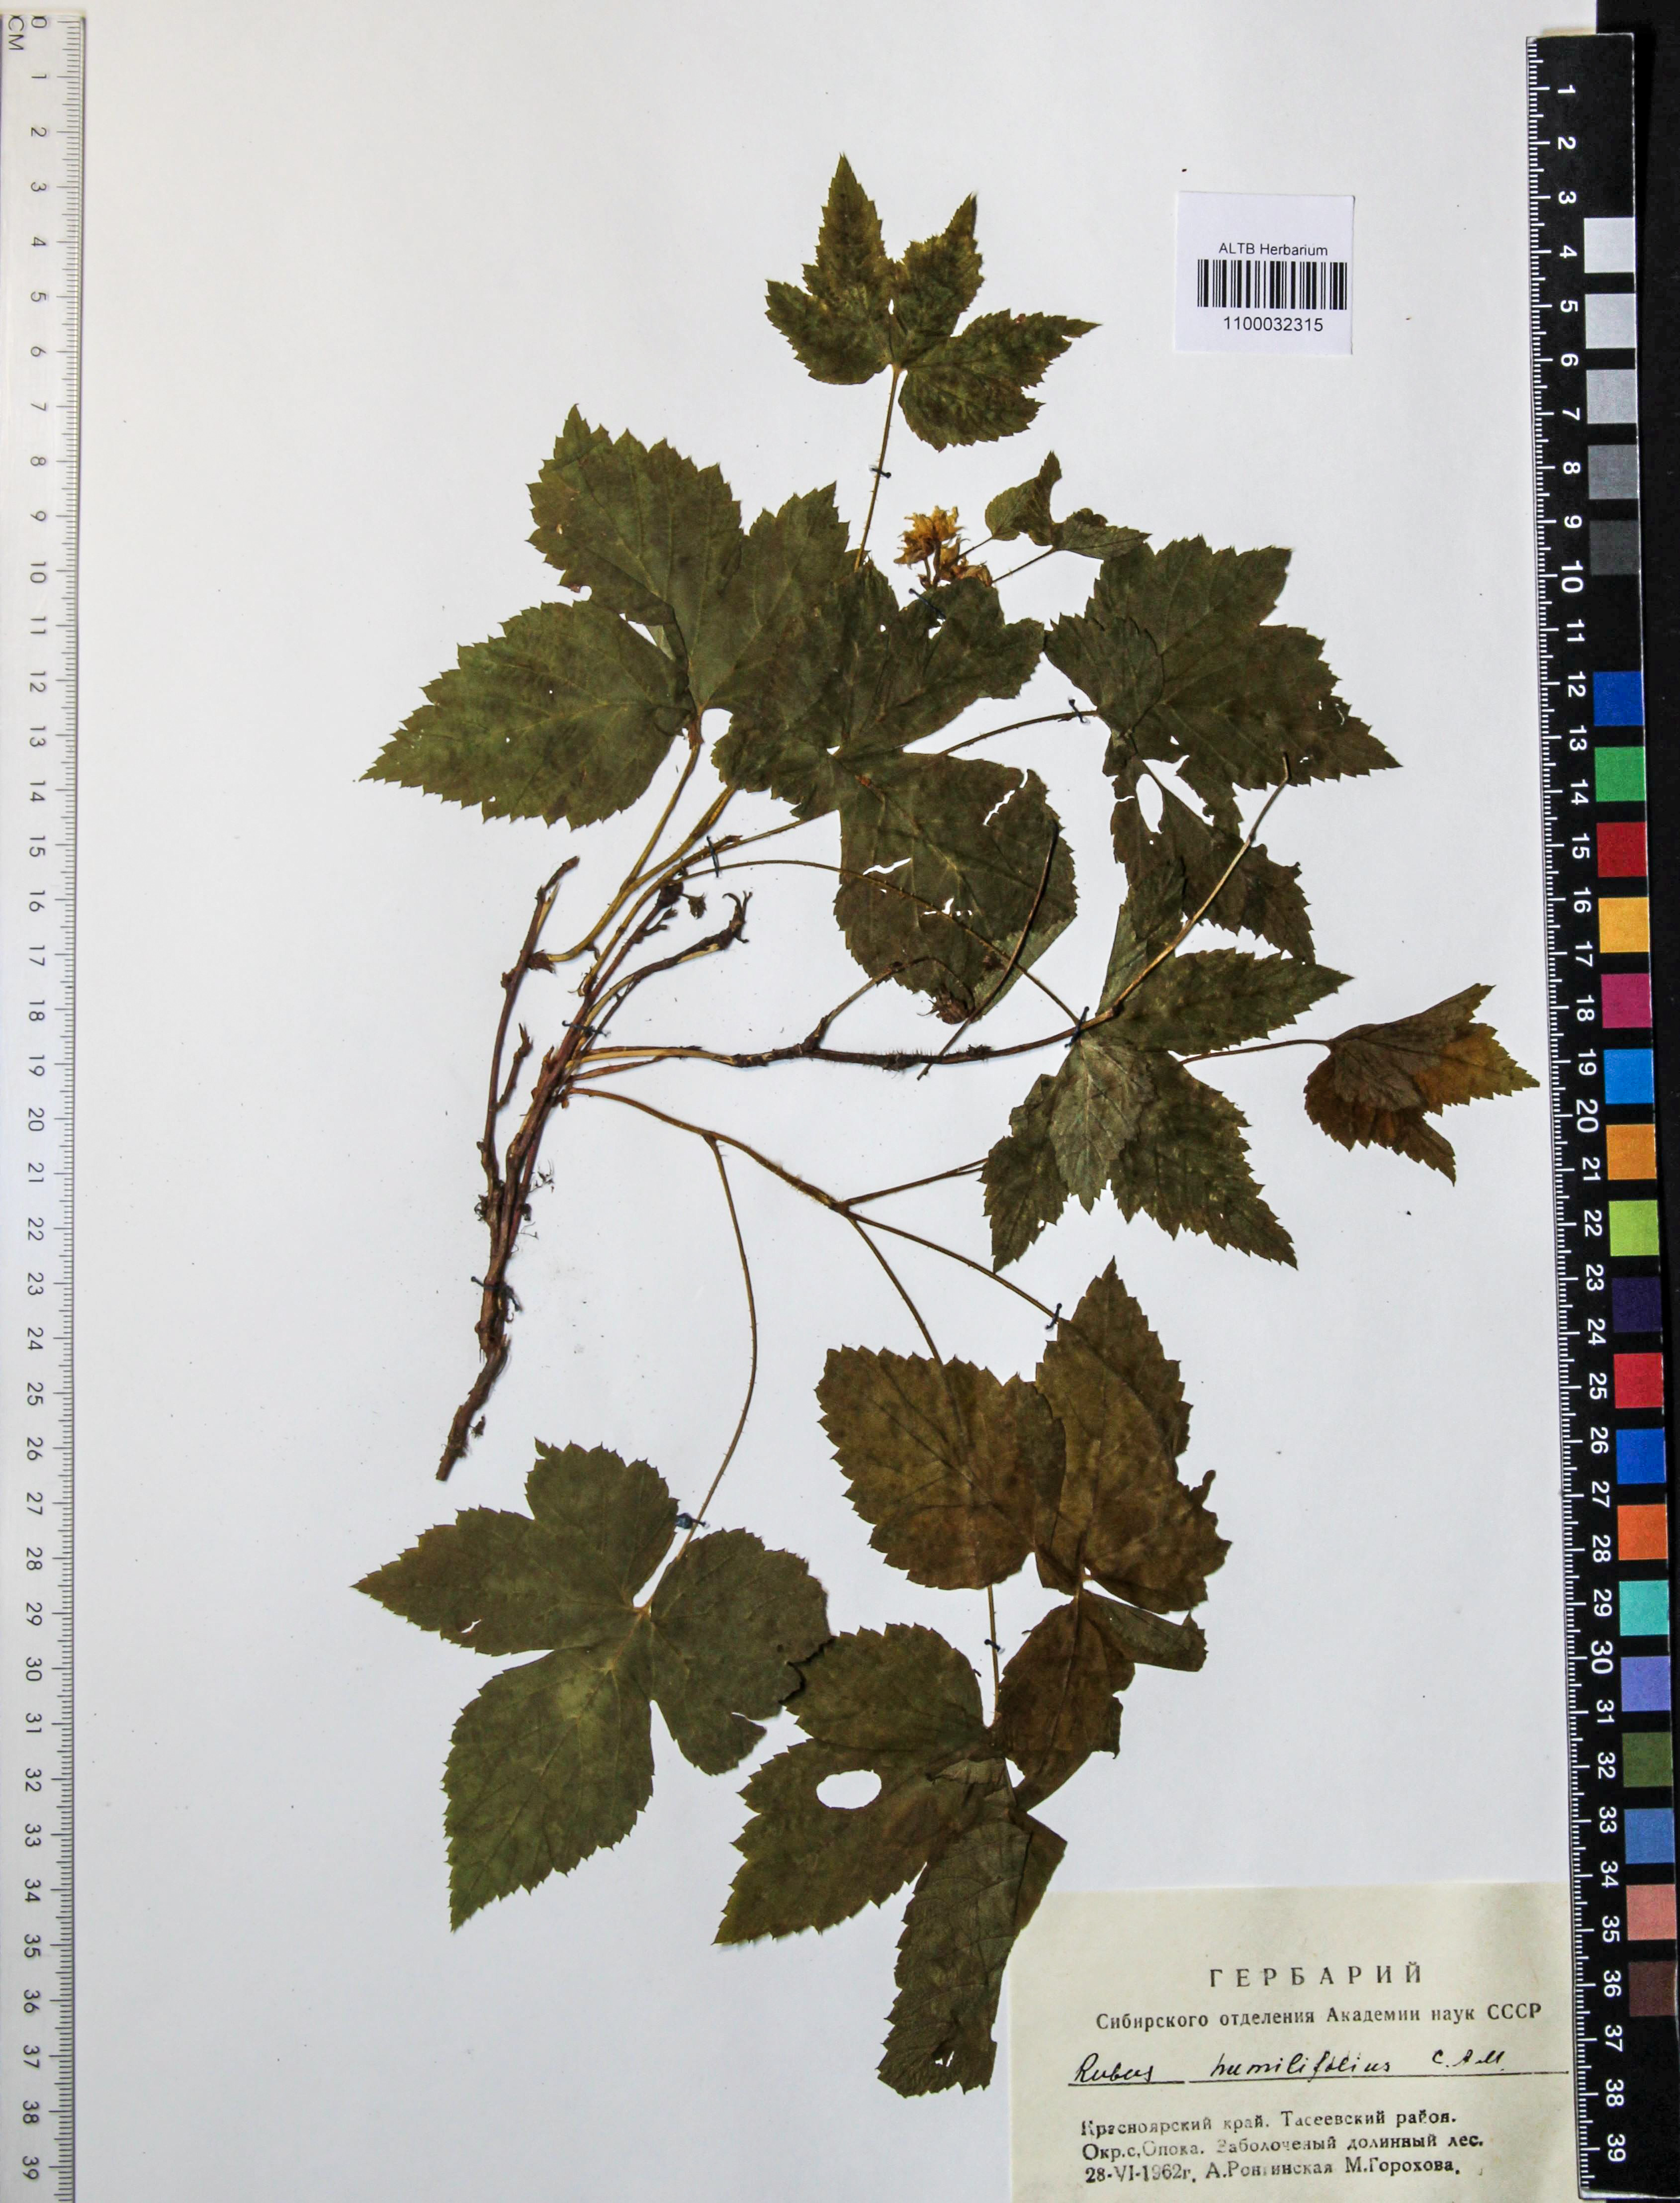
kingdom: Plantae
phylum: Tracheophyta
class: Magnoliopsida
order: Rosales
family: Rosaceae
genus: Rubus
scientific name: Rubus humilifolius
